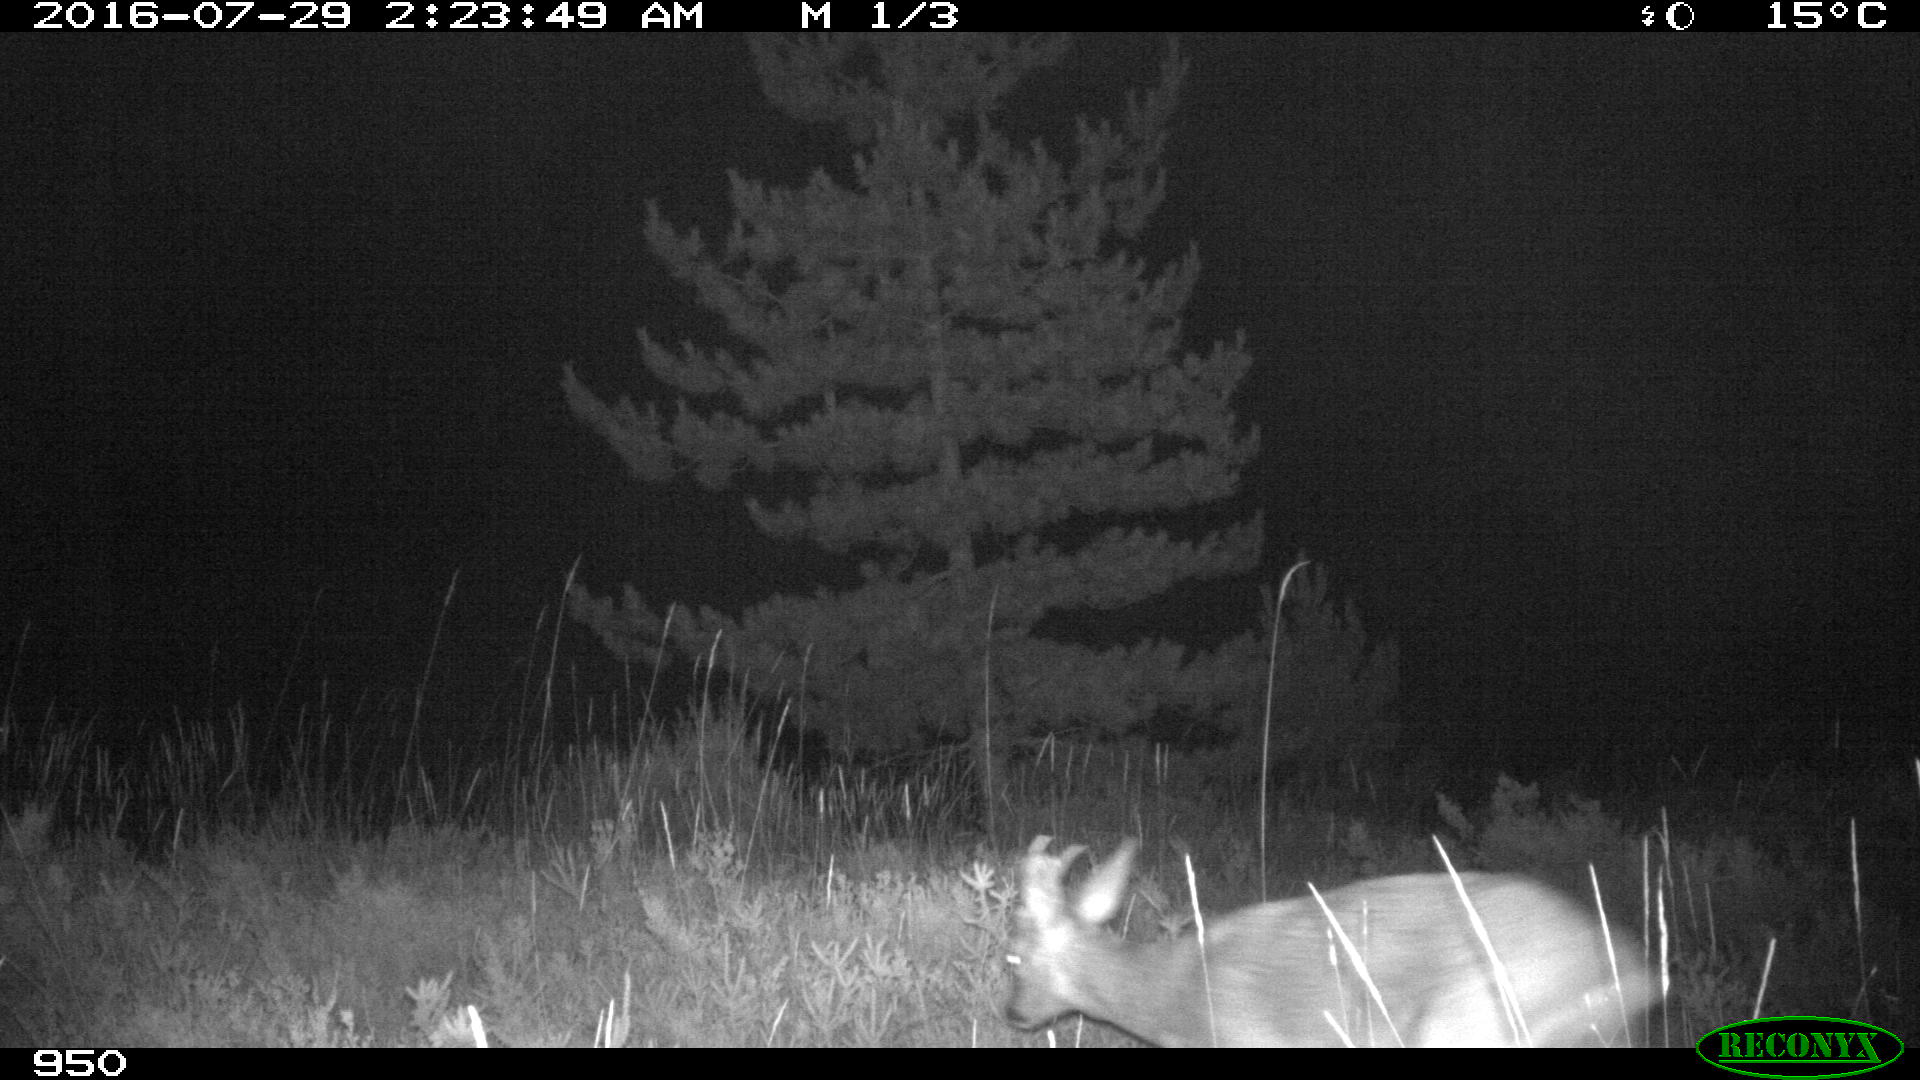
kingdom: Animalia
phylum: Chordata
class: Mammalia
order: Artiodactyla
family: Cervidae
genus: Capreolus
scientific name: Capreolus capreolus
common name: Western roe deer
